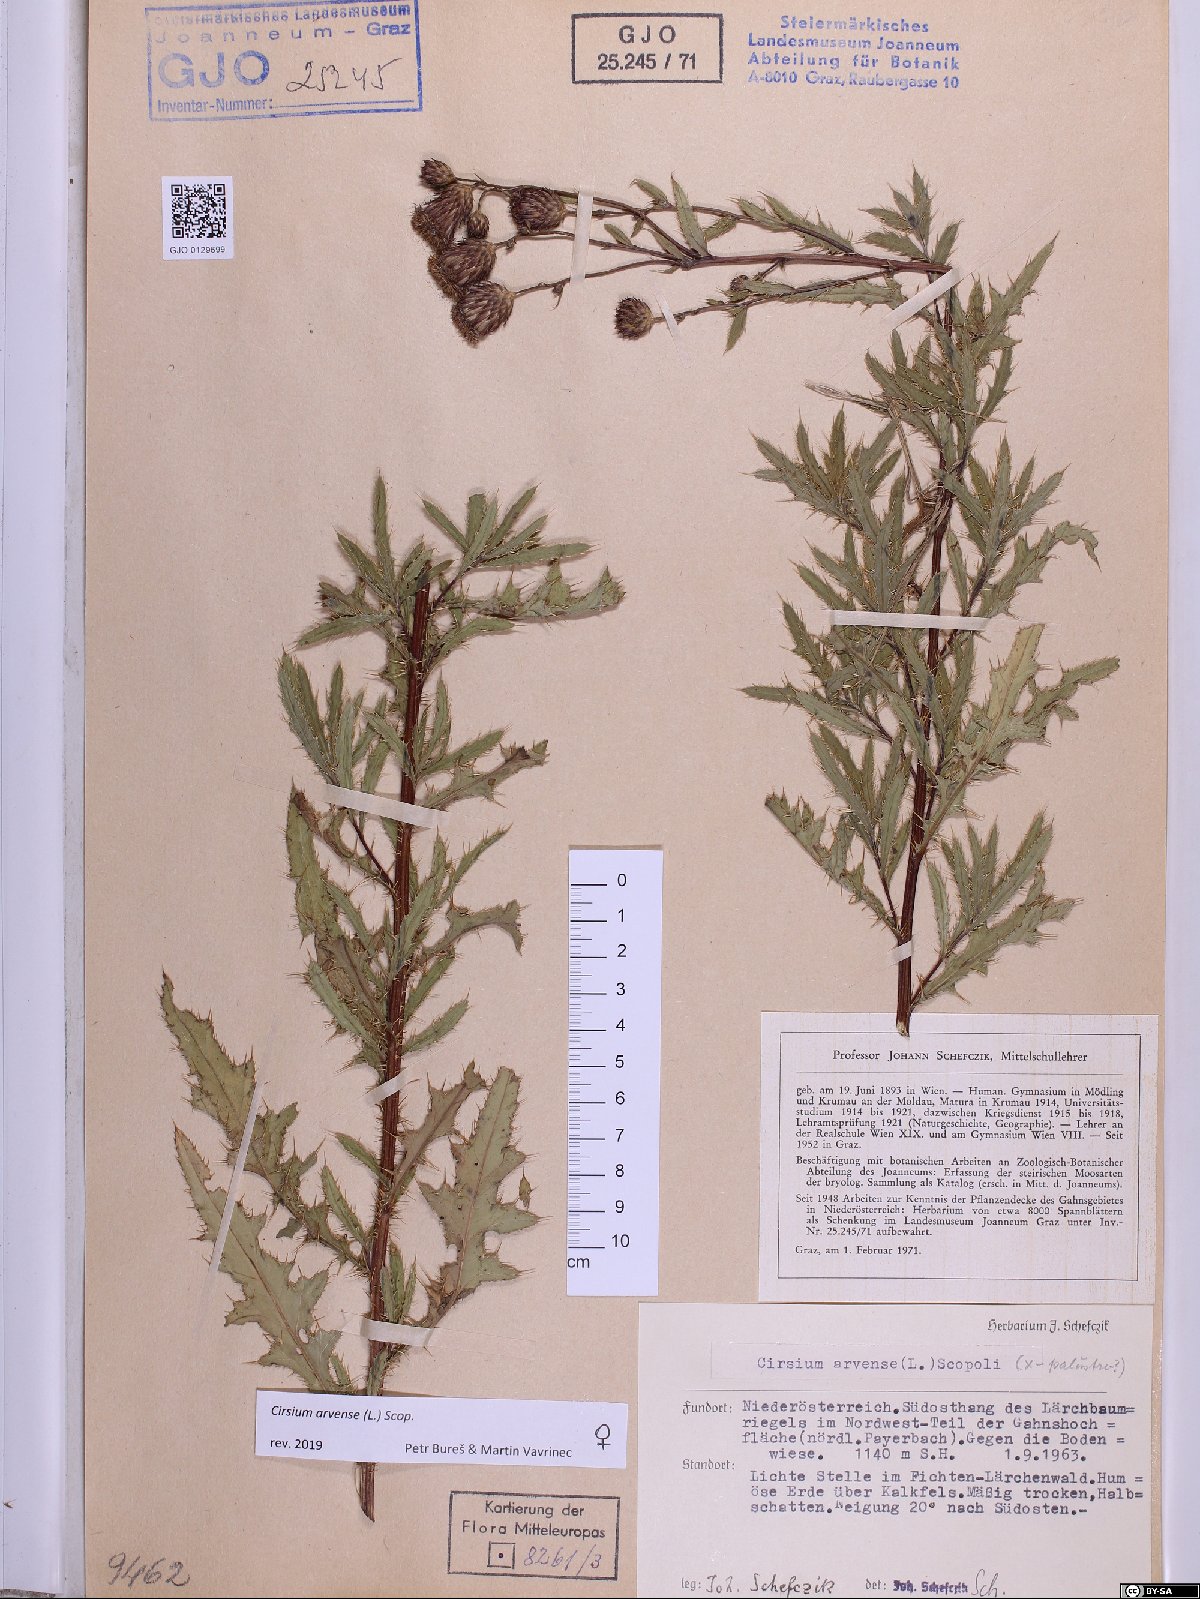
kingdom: Plantae
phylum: Tracheophyta
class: Magnoliopsida
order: Asterales
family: Asteraceae
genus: Cirsium
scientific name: Cirsium arvense
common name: Creeping thistle
